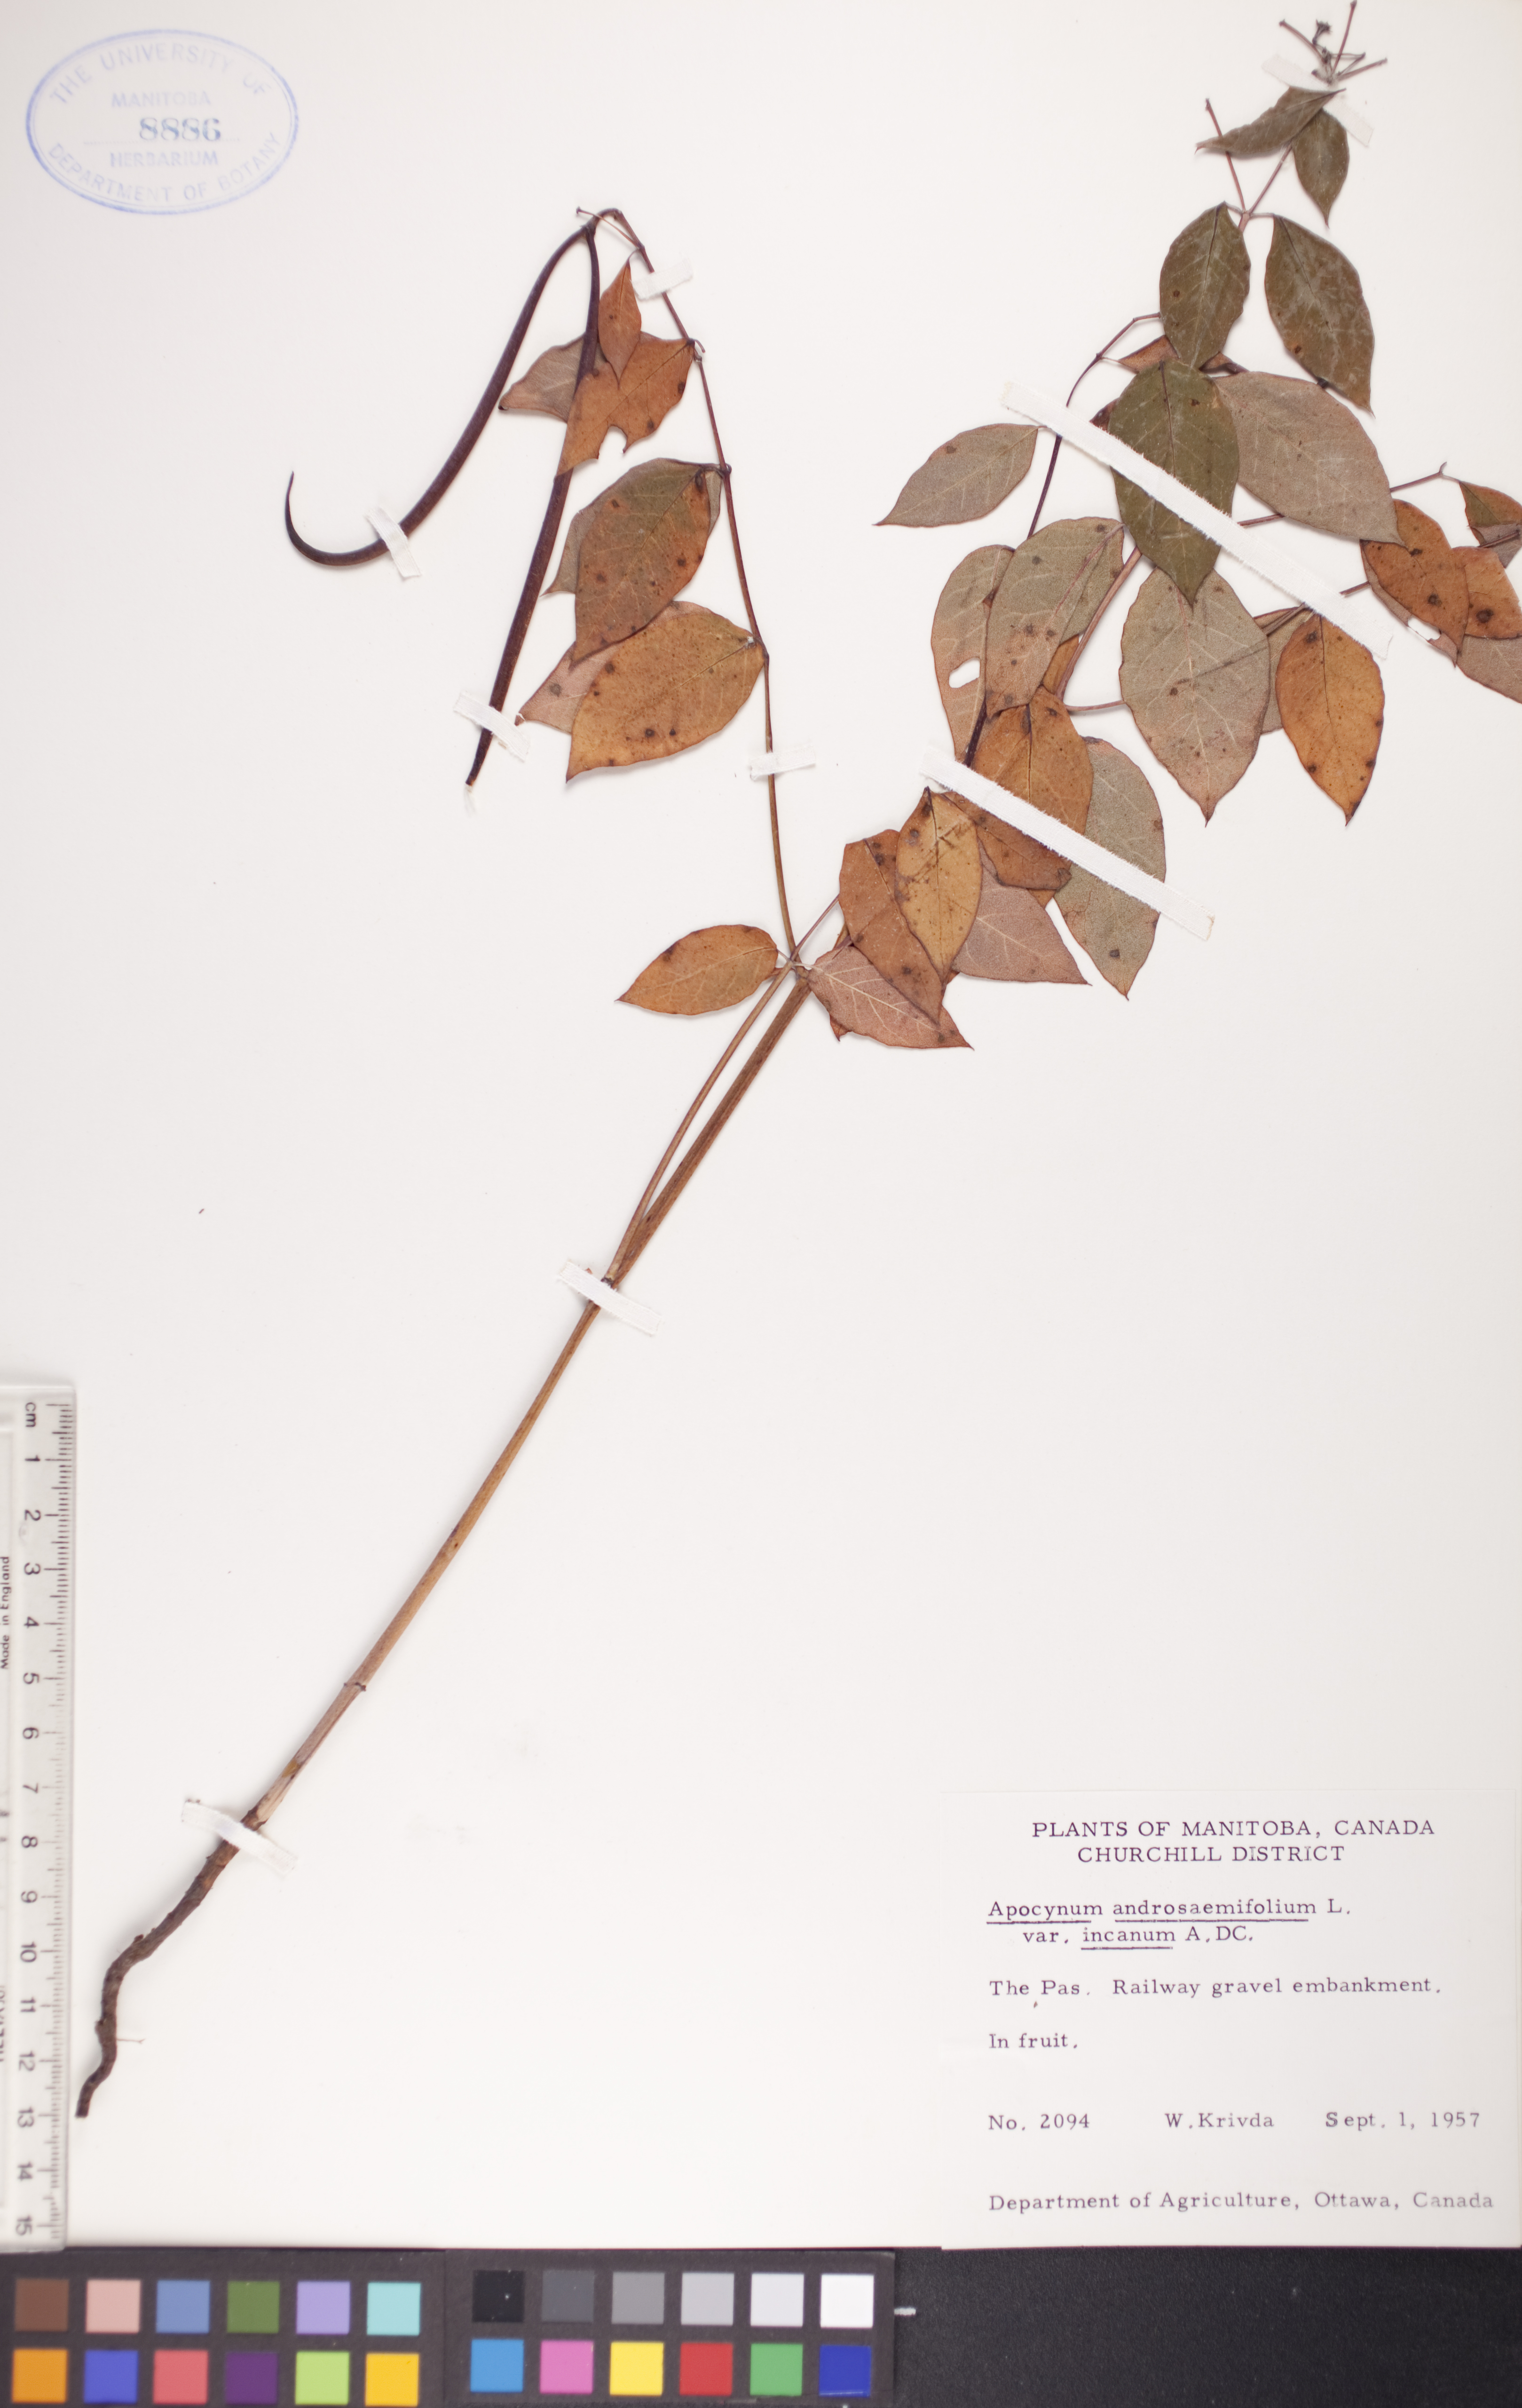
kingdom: Plantae
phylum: Tracheophyta
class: Magnoliopsida
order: Gentianales
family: Apocynaceae
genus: Apocynum
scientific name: Apocynum androsaemifolium
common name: Spreading dogbane
